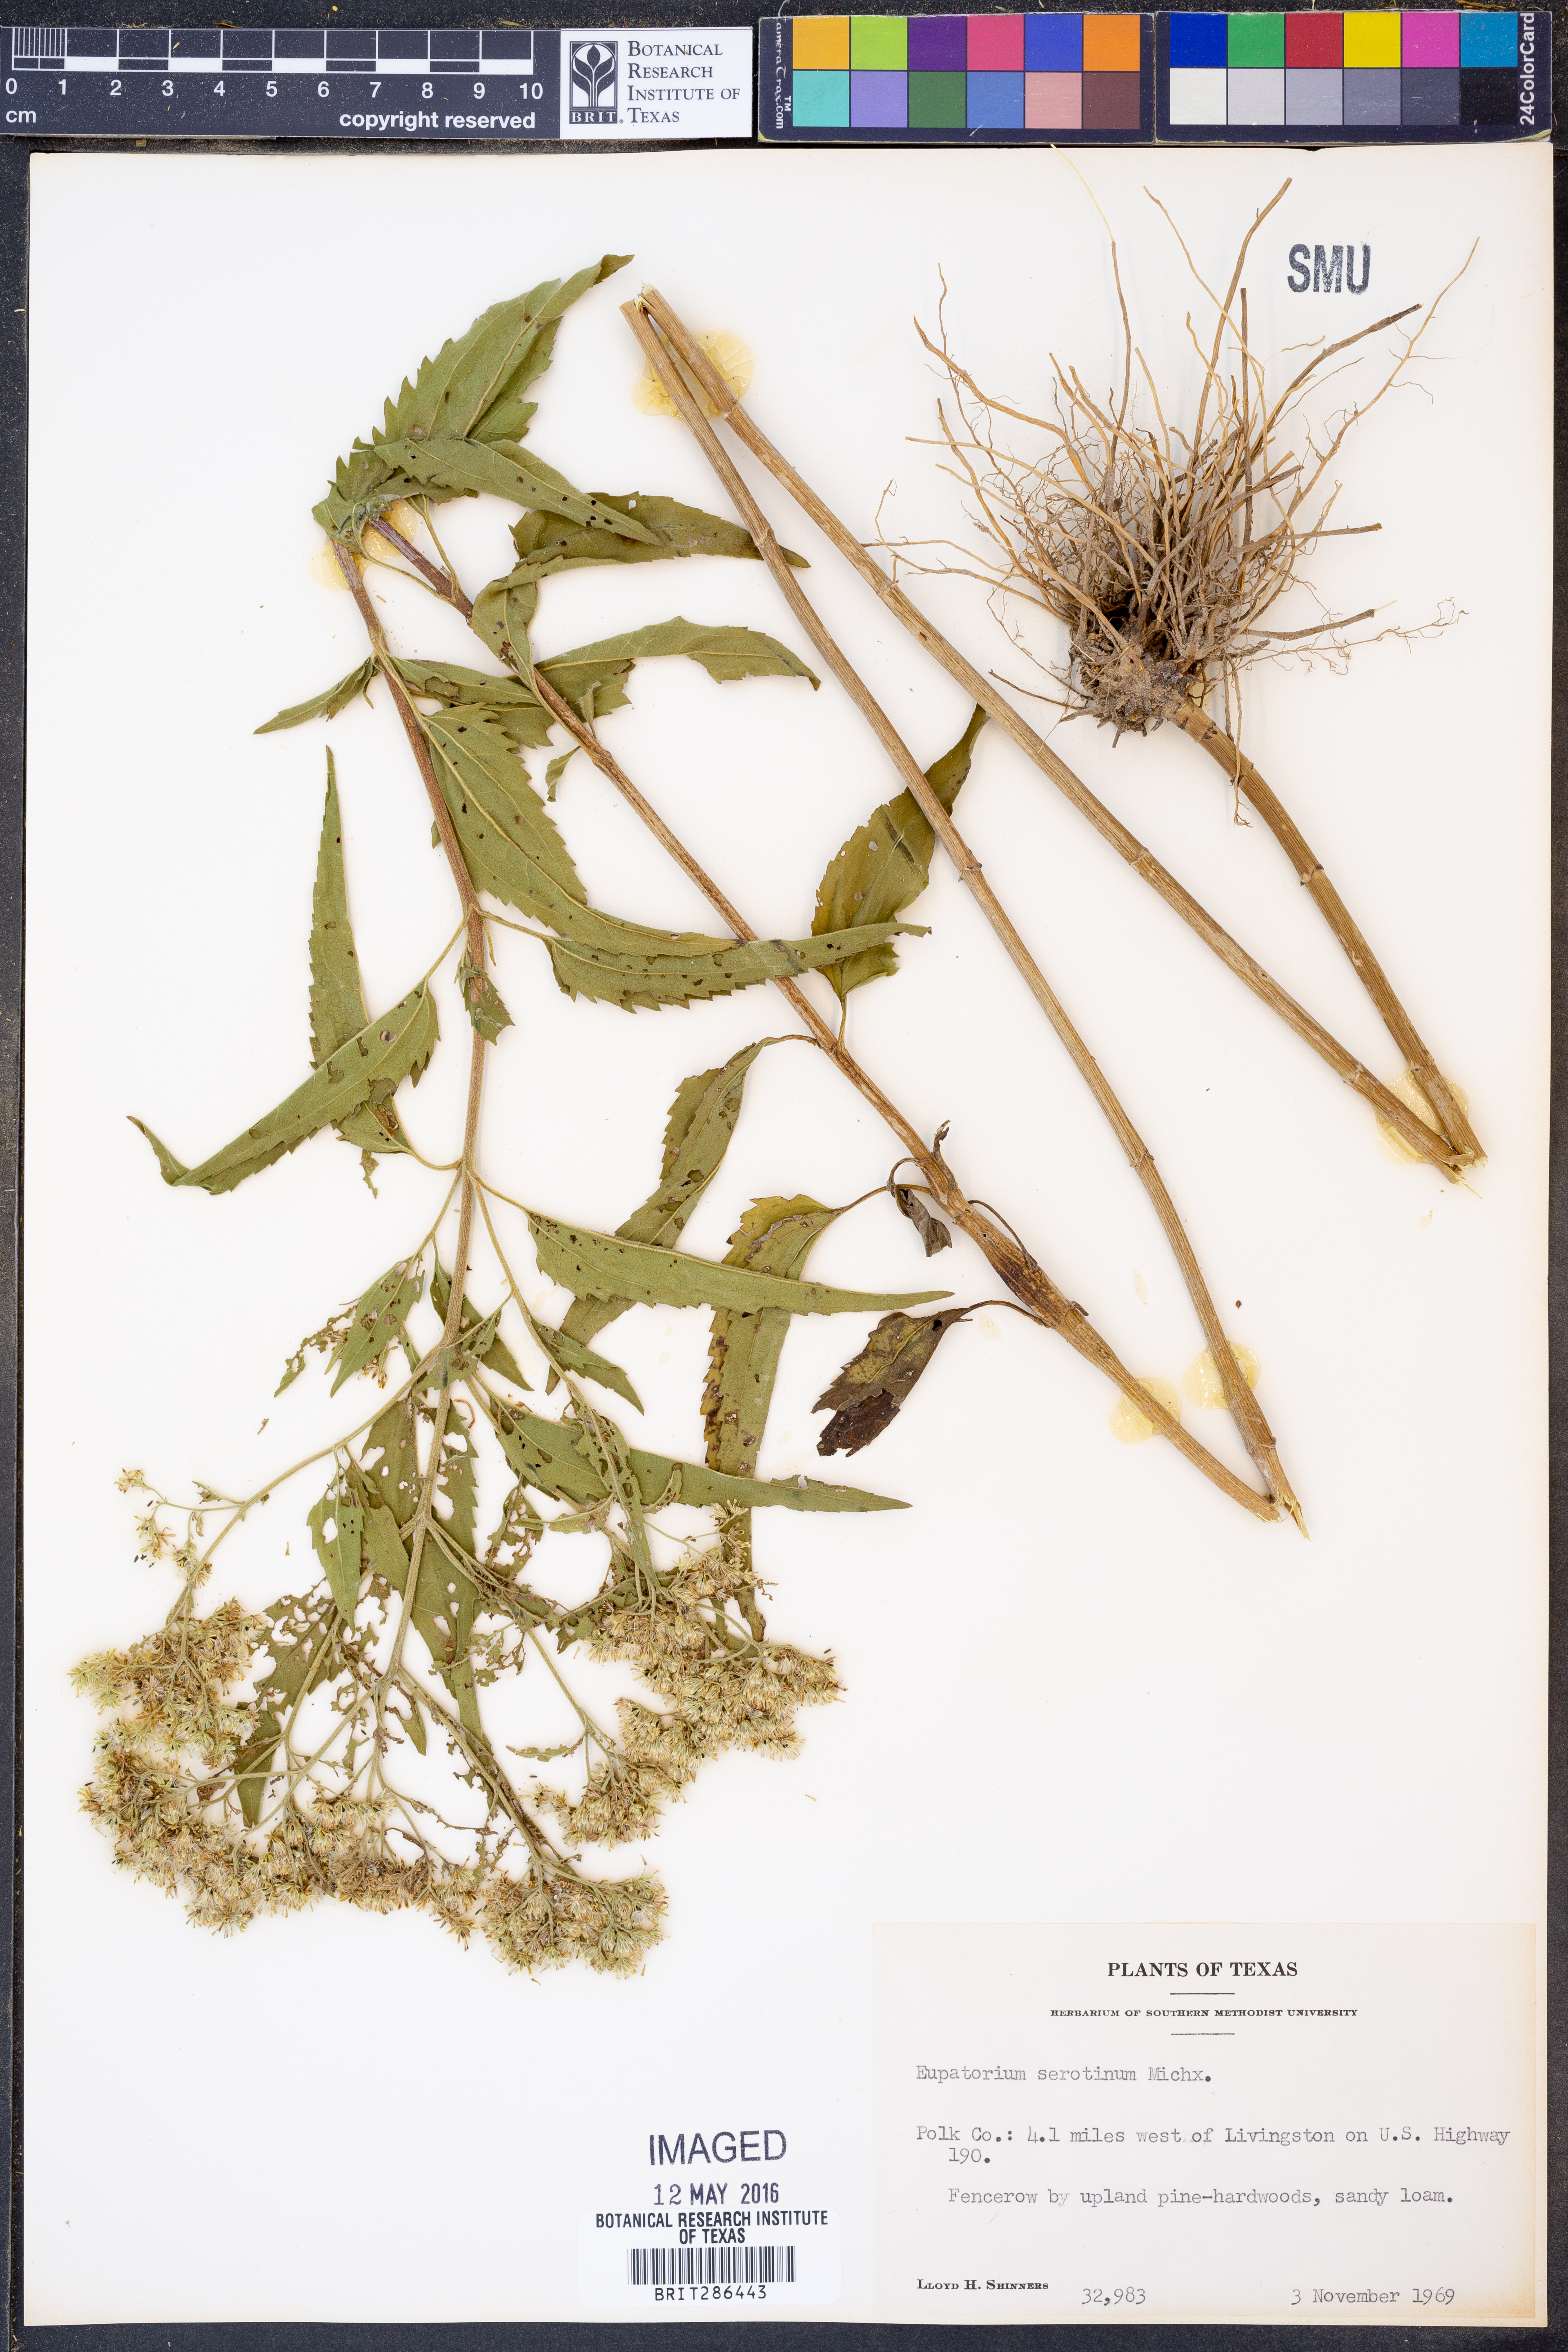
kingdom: Plantae
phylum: Tracheophyta
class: Magnoliopsida
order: Asterales
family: Asteraceae
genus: Eupatorium
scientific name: Eupatorium serotinum
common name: Late boneset
